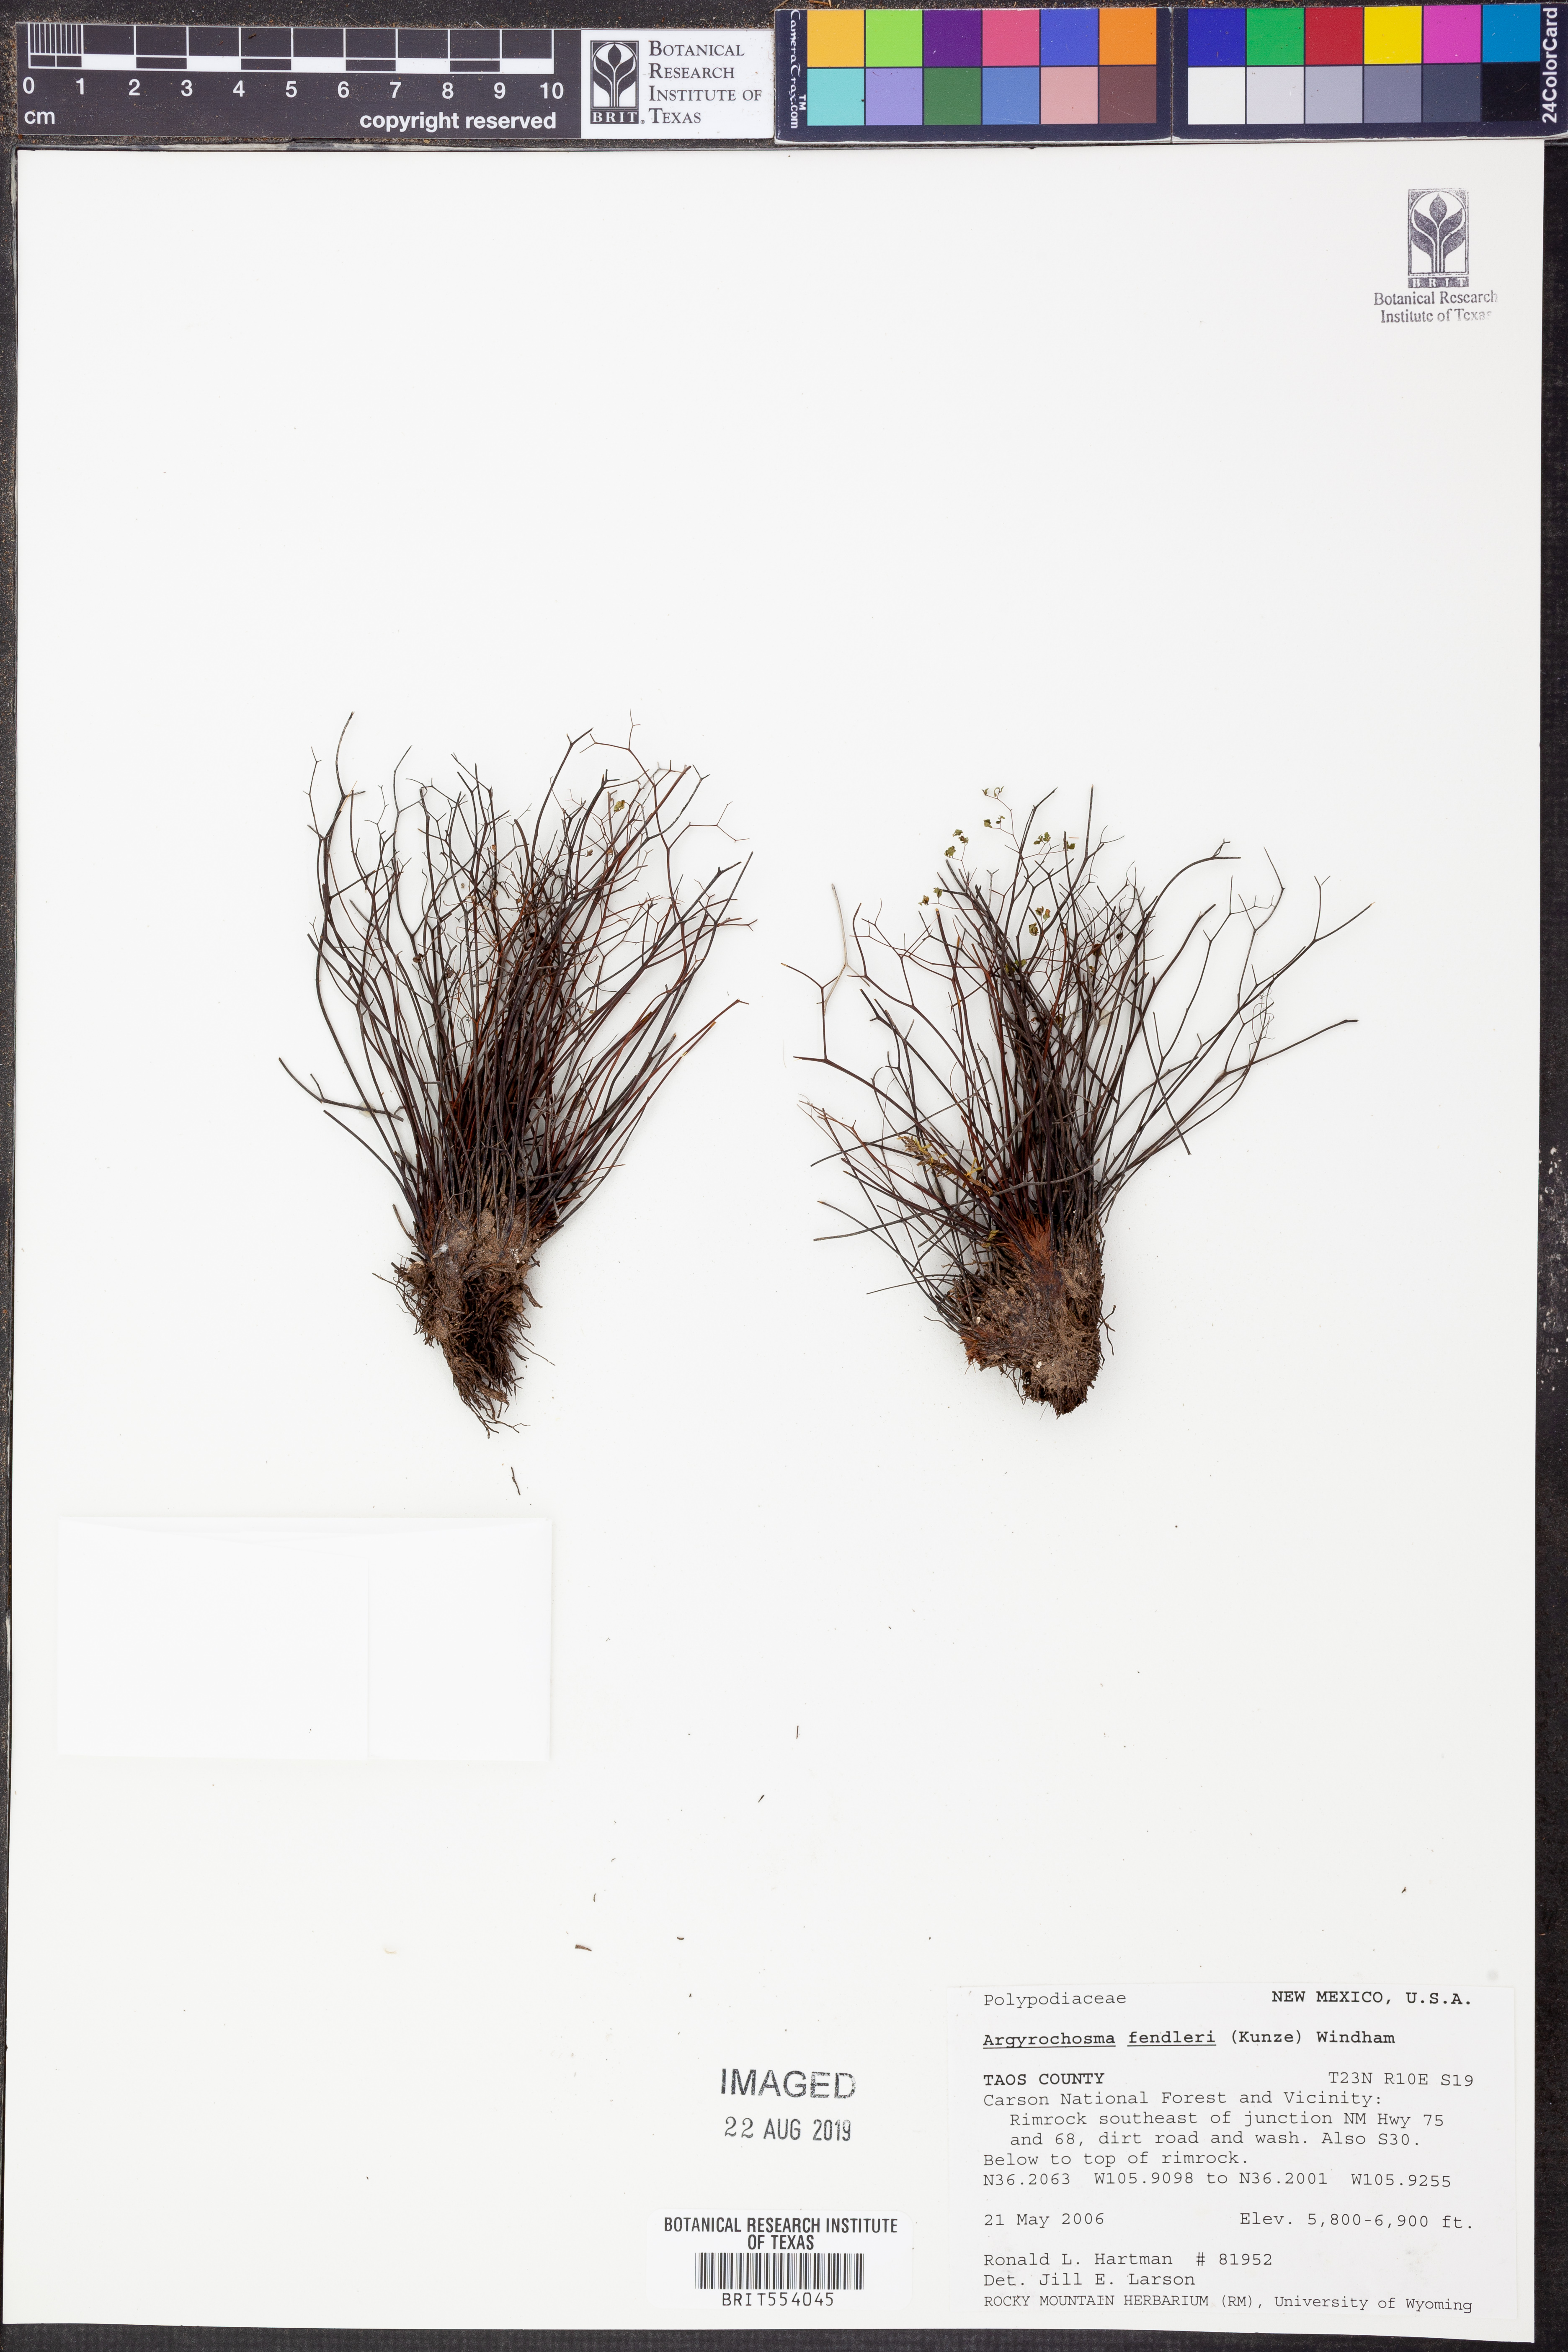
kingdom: Plantae
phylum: Tracheophyta
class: Polypodiopsida
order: Polypodiales
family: Pteridaceae
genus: Argyrochosma
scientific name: Argyrochosma fendleri
